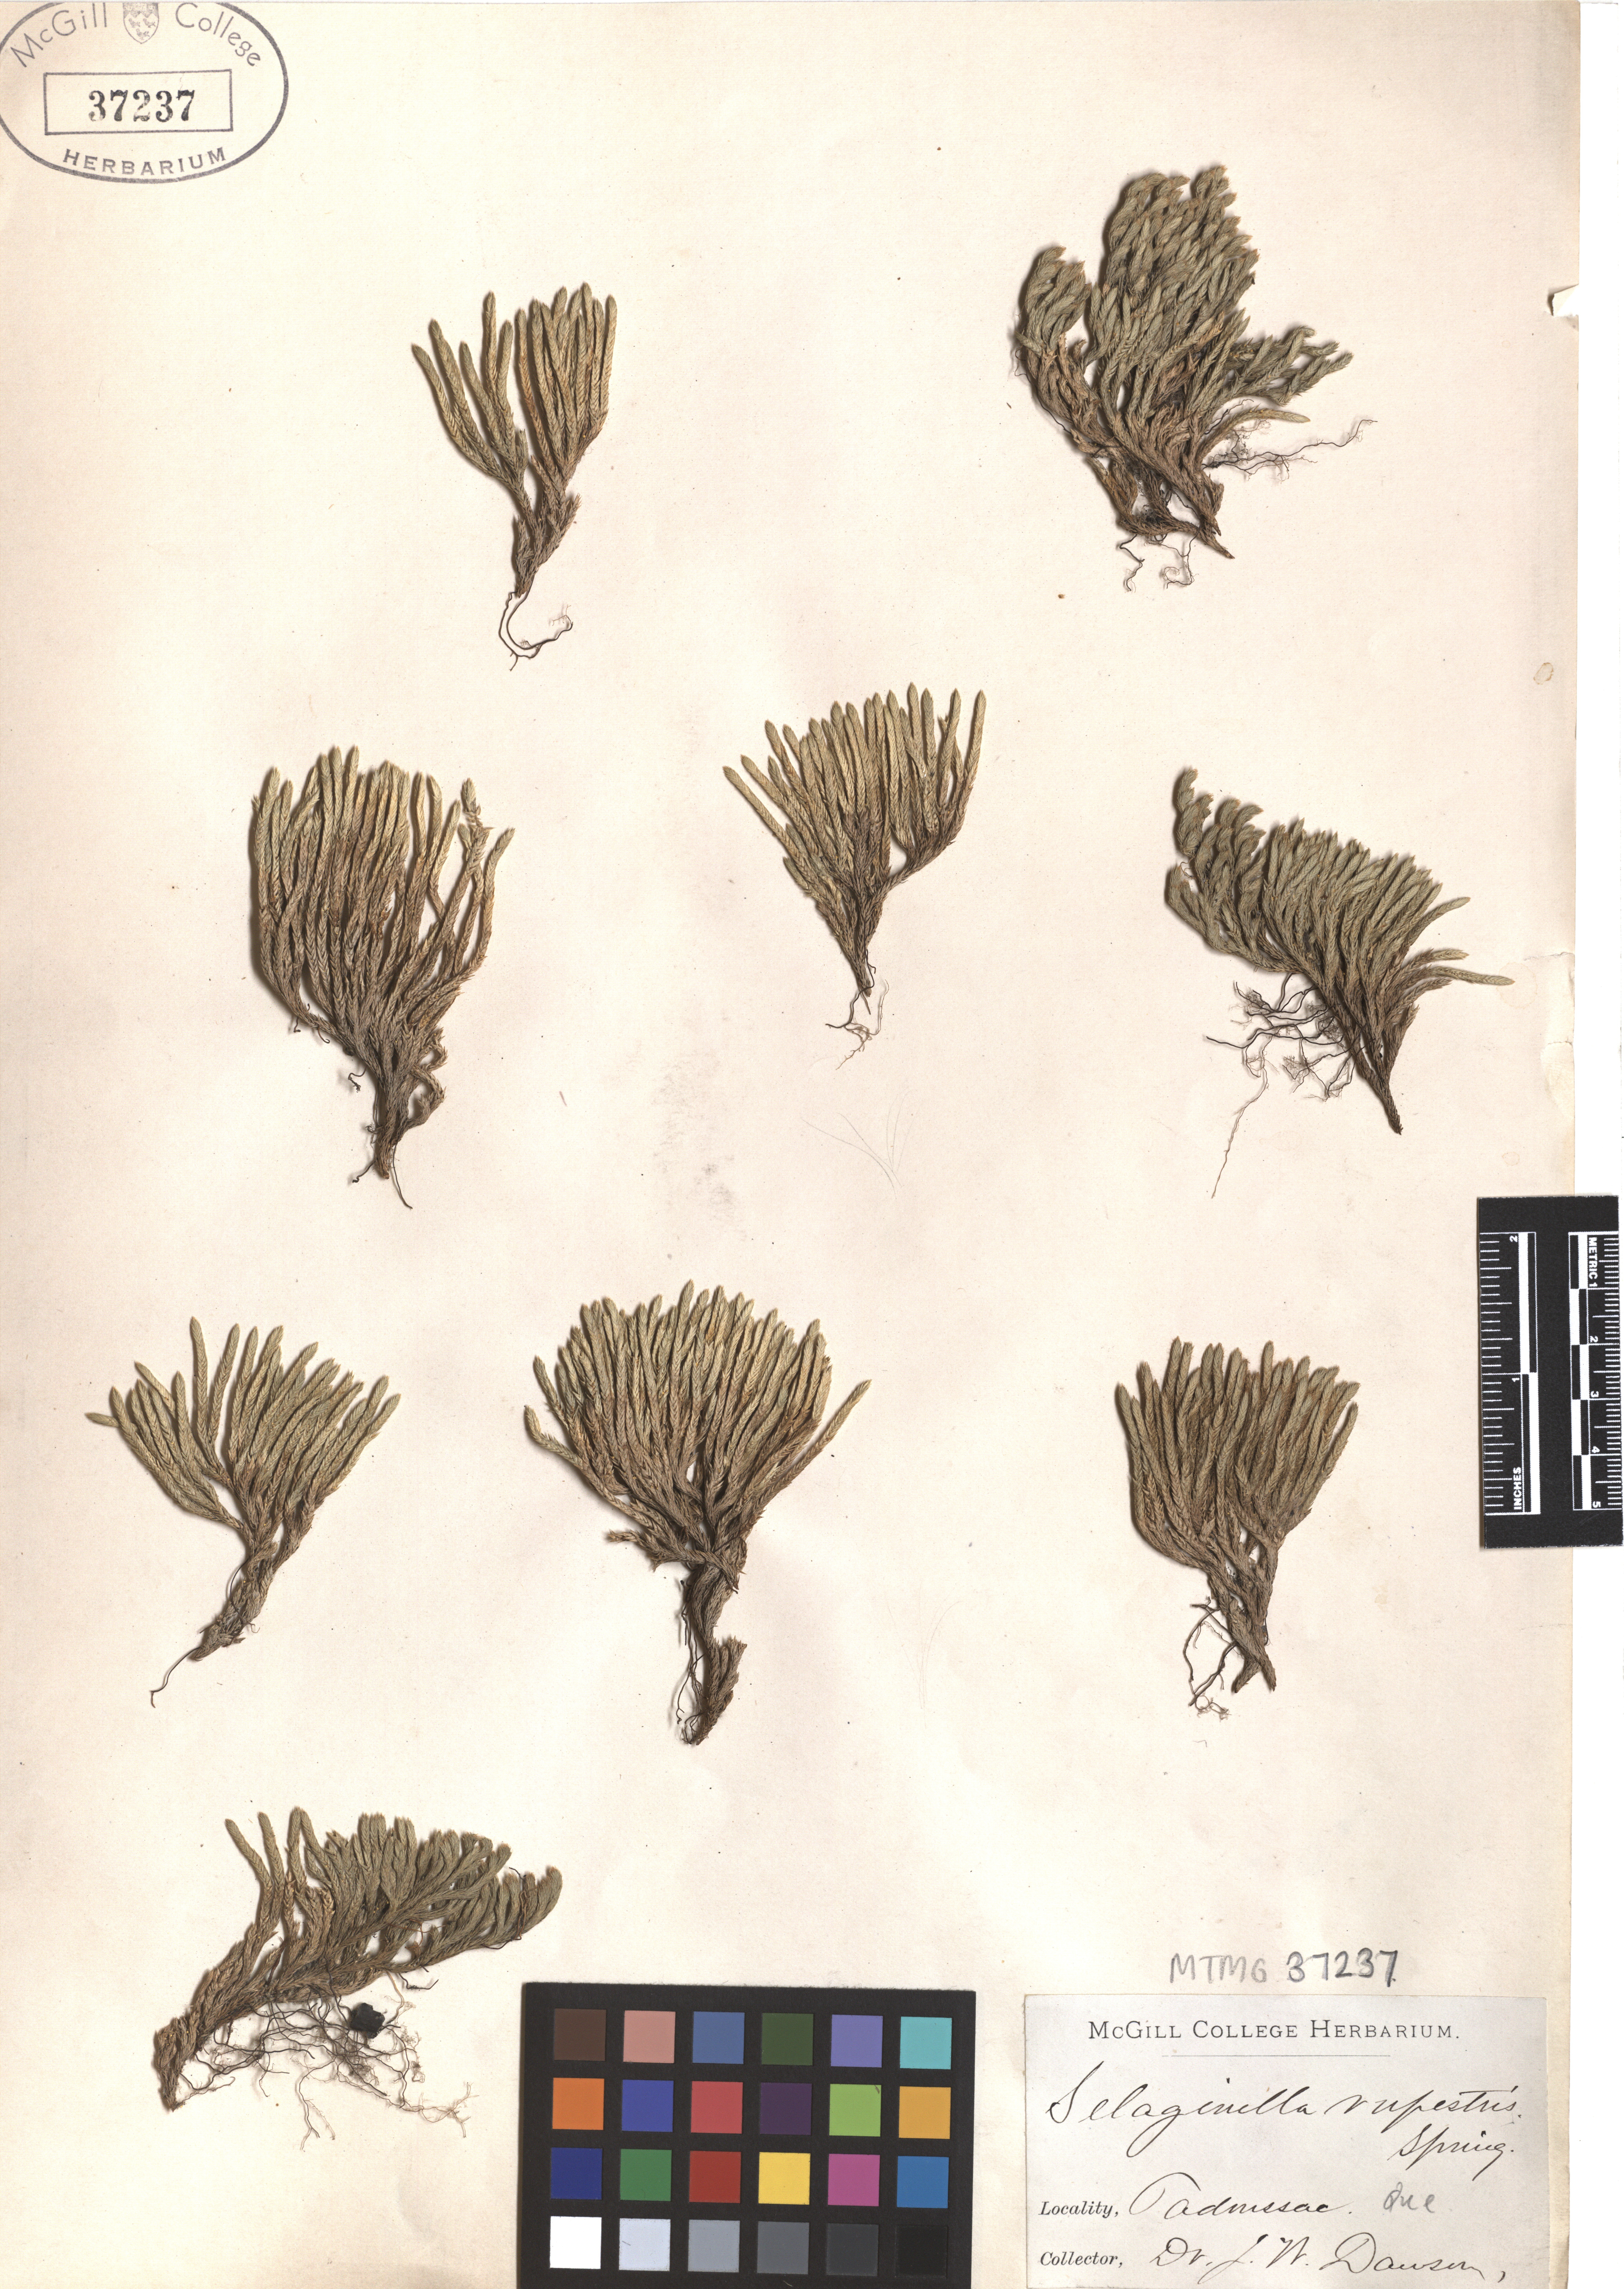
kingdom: Plantae
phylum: Tracheophyta
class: Lycopodiopsida
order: Selaginellales
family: Selaginellaceae
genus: Selaginella
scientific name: Selaginella sellowii
